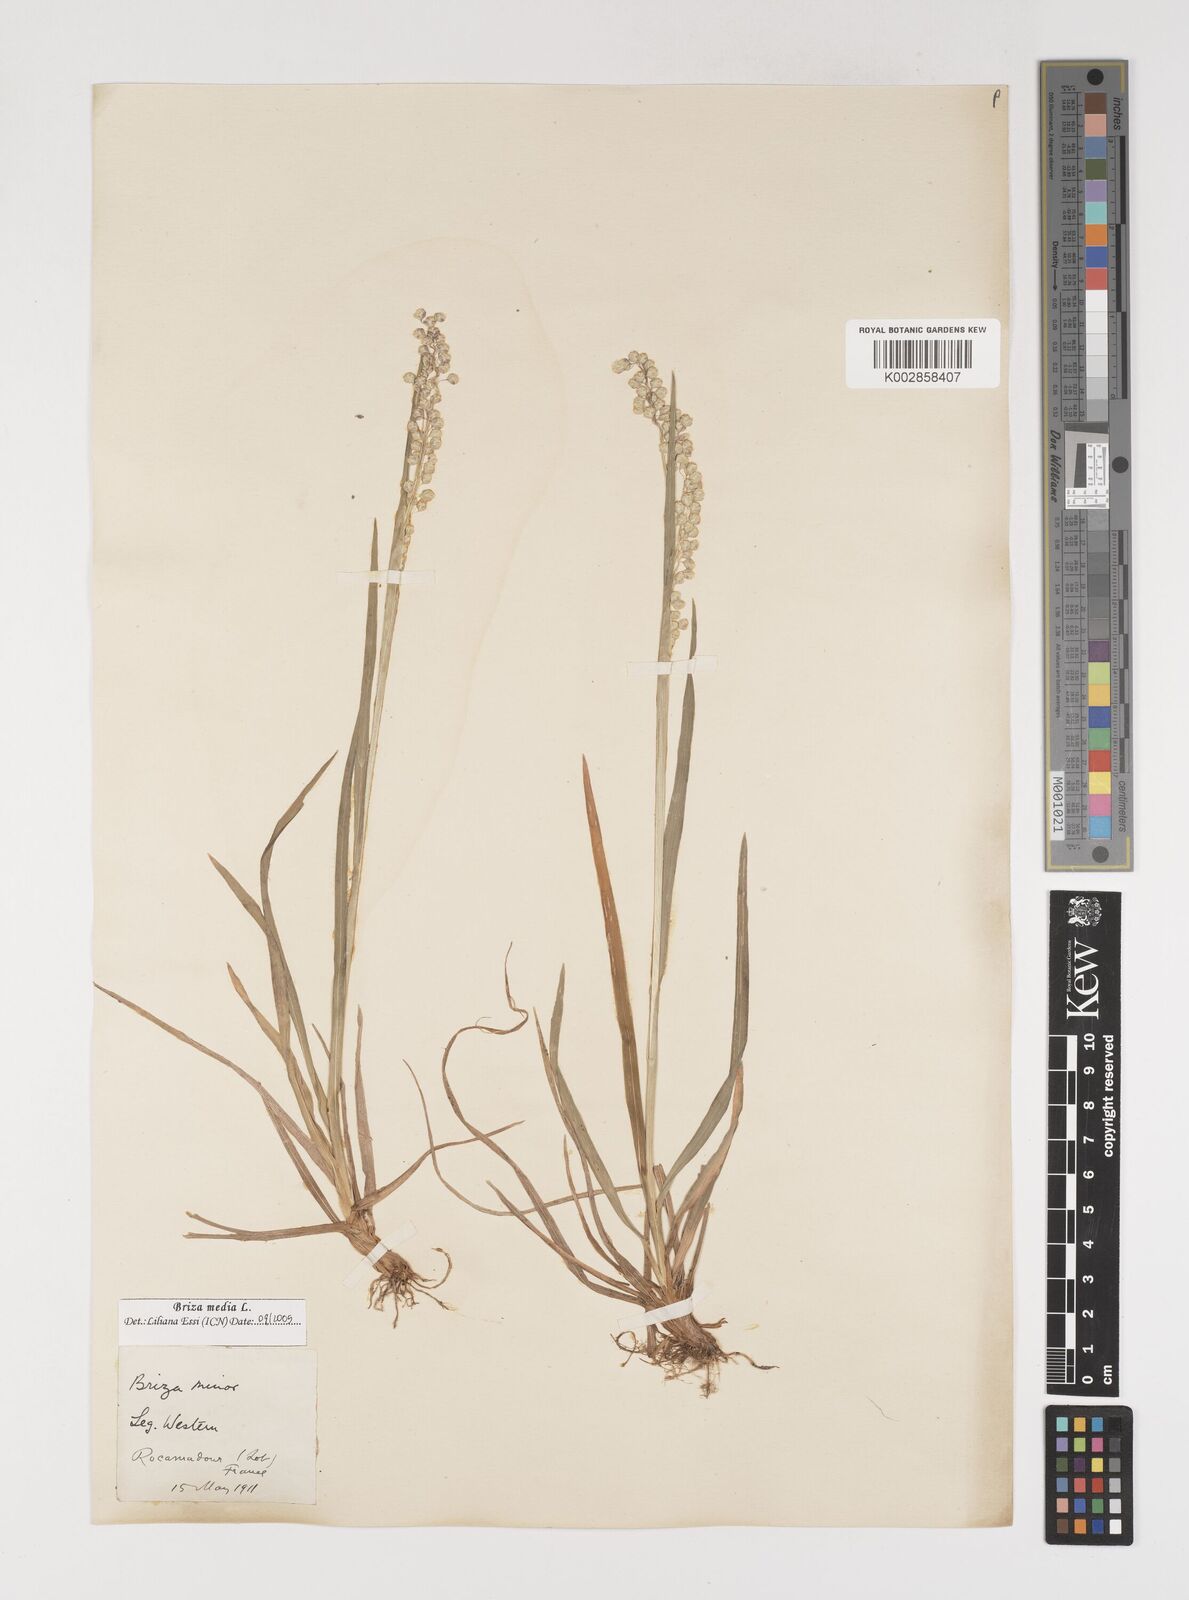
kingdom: Plantae
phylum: Tracheophyta
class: Liliopsida
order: Poales
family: Poaceae
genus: Briza
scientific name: Briza media
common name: Quaking grass
